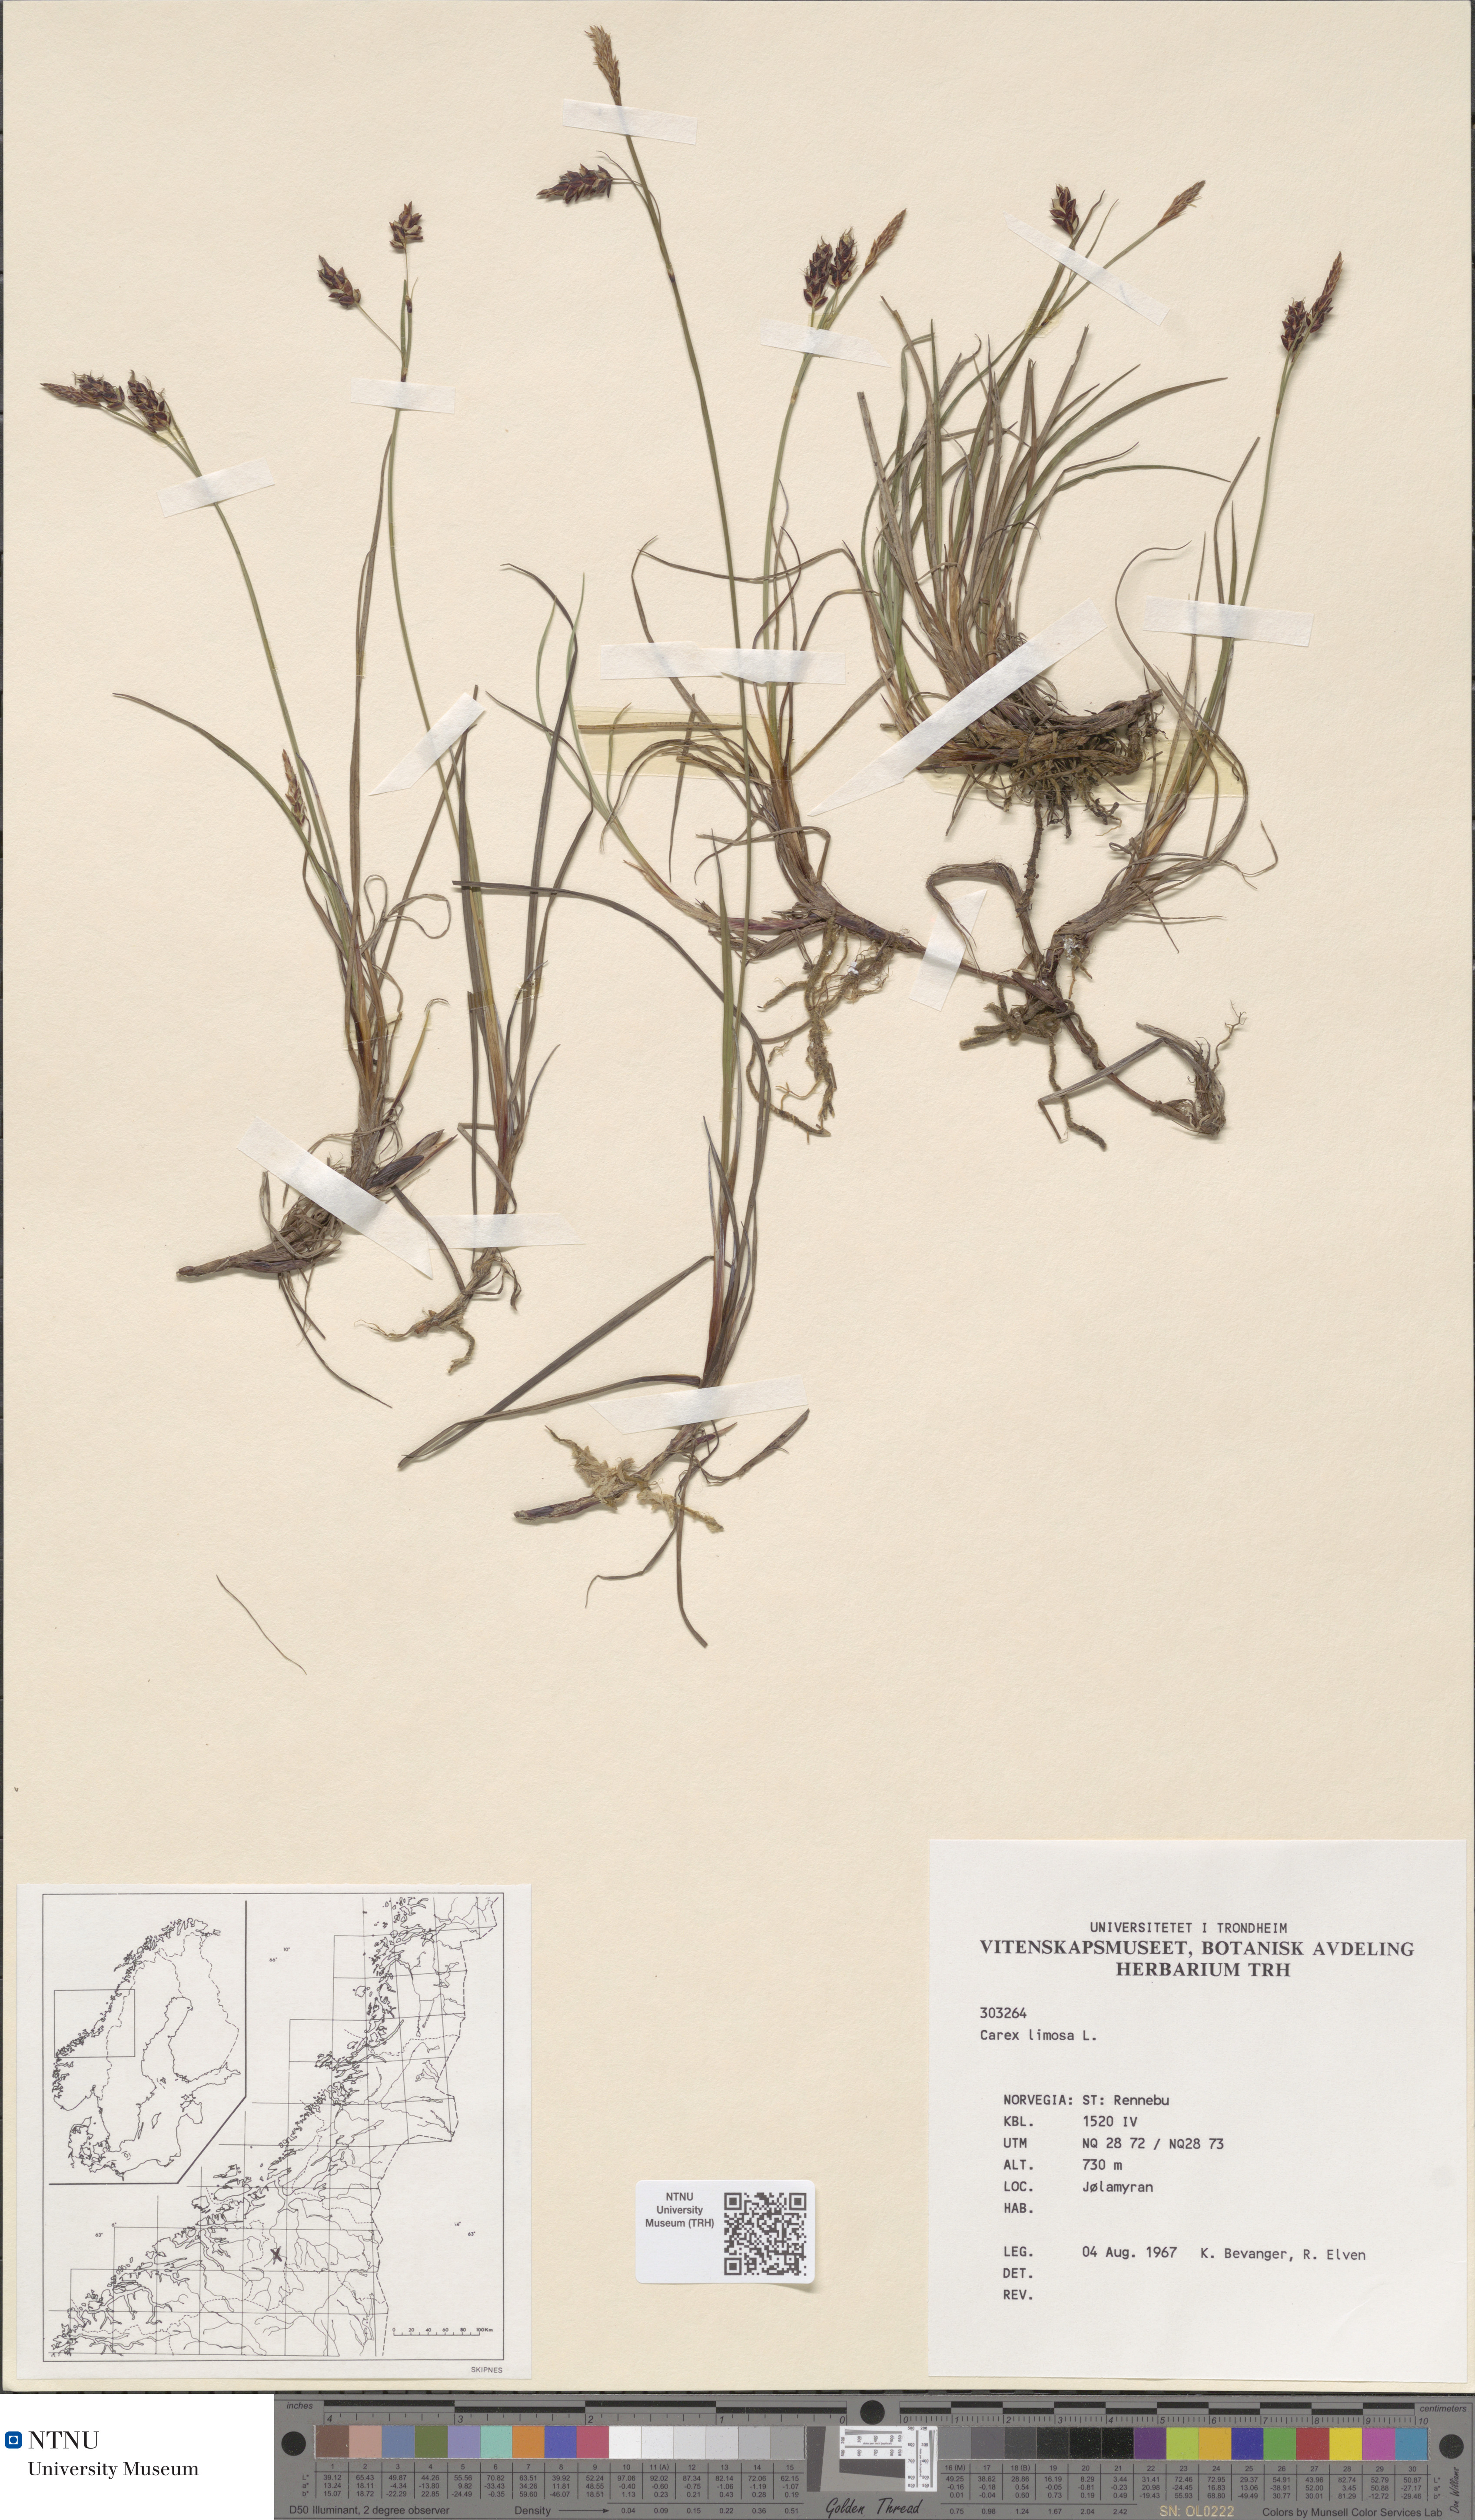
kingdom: Plantae
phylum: Tracheophyta
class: Liliopsida
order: Poales
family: Cyperaceae
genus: Carex
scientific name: Carex limosa
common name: Bog sedge
